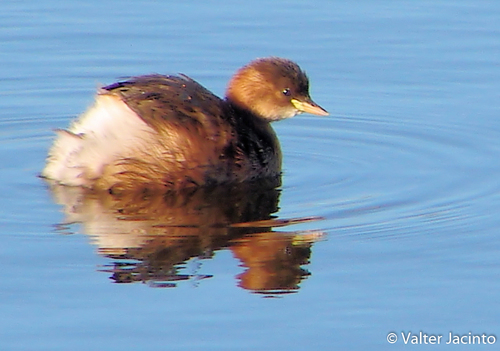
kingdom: Animalia
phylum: Chordata
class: Aves
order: Podicipediformes
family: Podicipedidae
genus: Tachybaptus
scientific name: Tachybaptus ruficollis
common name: Little grebe
